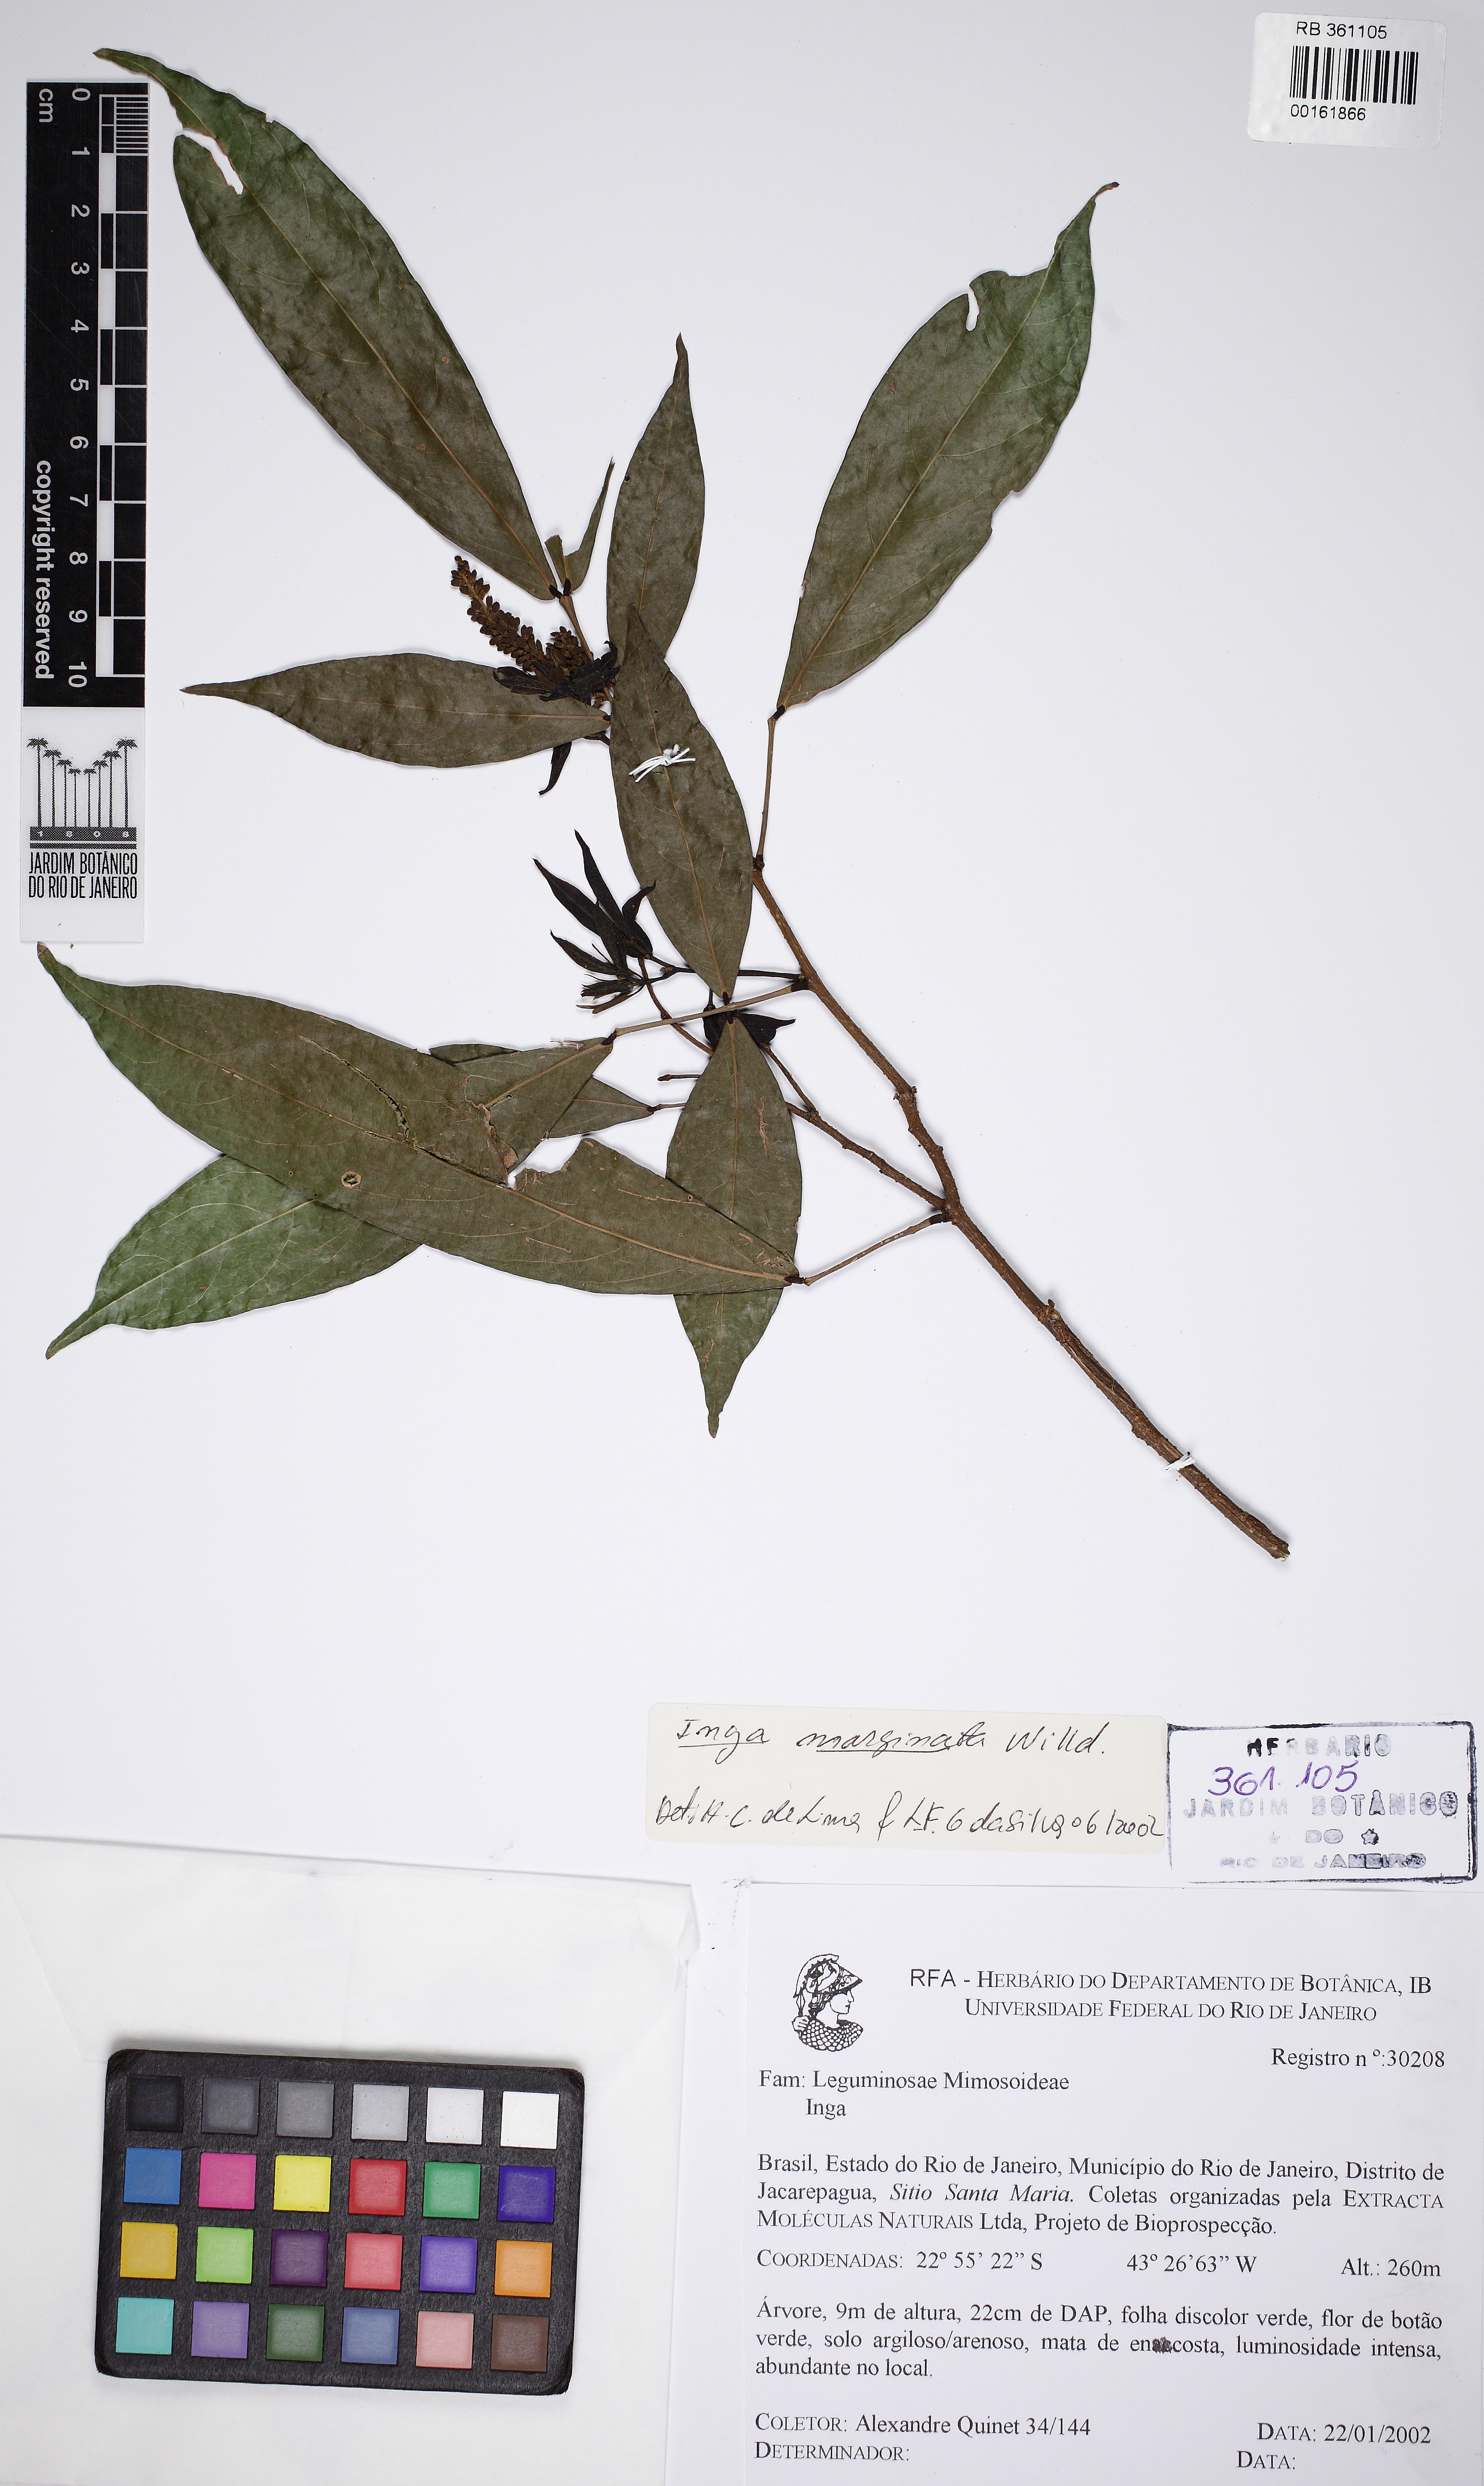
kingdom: Plantae
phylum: Tracheophyta
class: Magnoliopsida
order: Fabales
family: Fabaceae
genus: Inga
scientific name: Inga marginata
